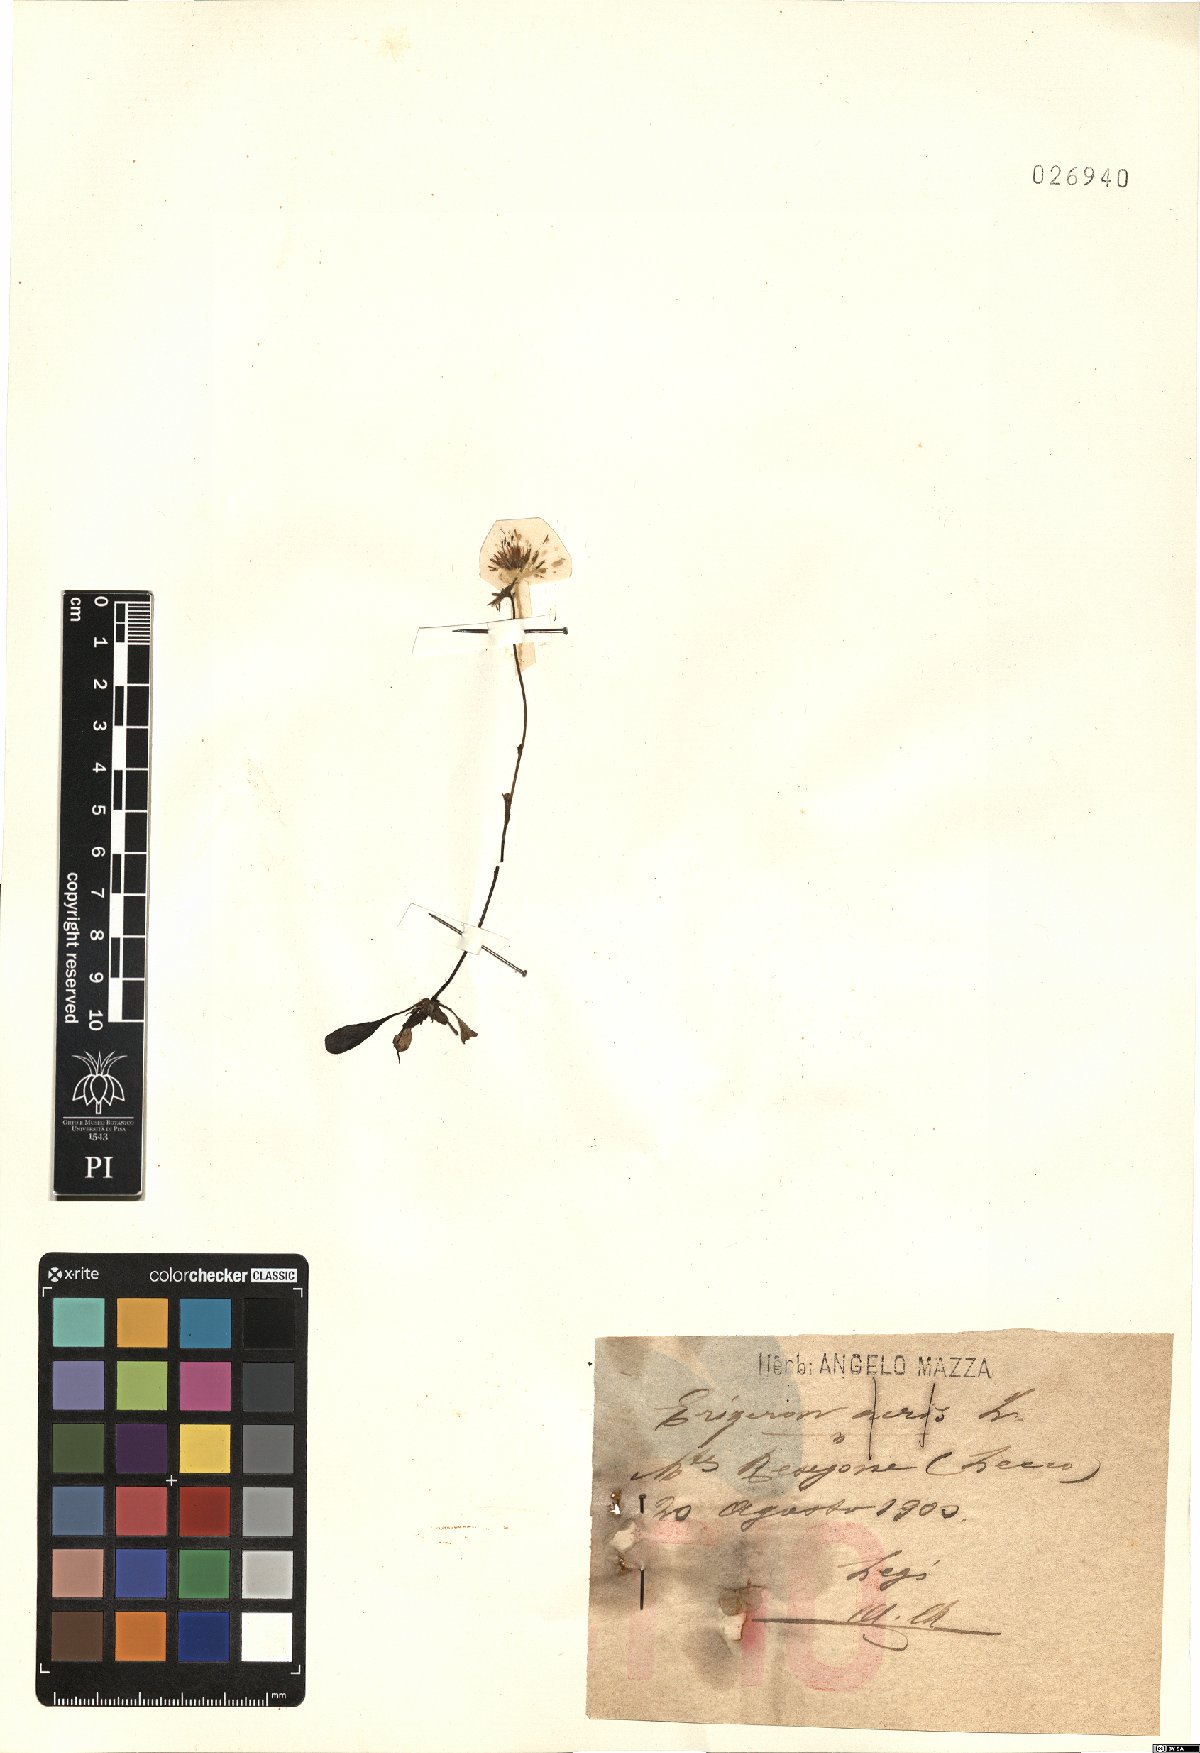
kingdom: Plantae
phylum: Tracheophyta
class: Magnoliopsida
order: Asterales
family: Asteraceae
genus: Erigeron
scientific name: Erigeron acer
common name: Blue fleabane
